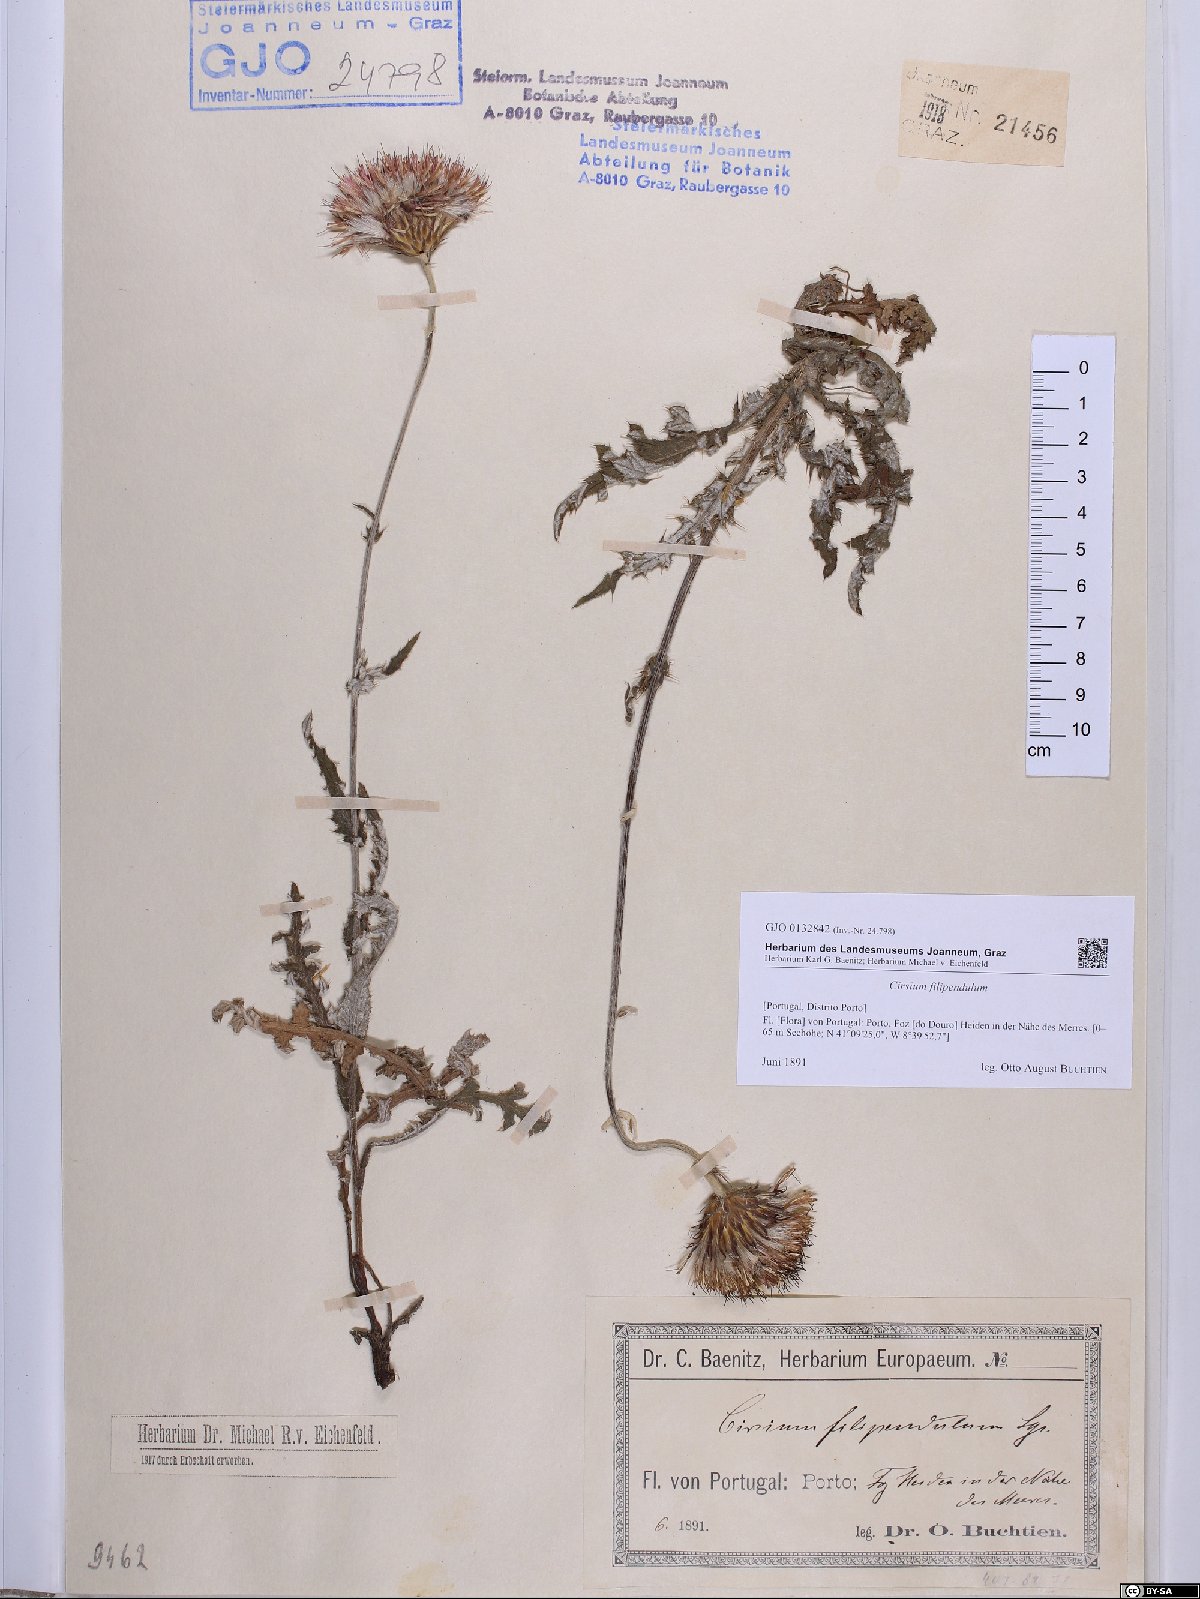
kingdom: Plantae
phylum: Tracheophyta
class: Magnoliopsida
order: Asterales
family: Asteraceae
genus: Cirsium
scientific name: Cirsium filipendulum
